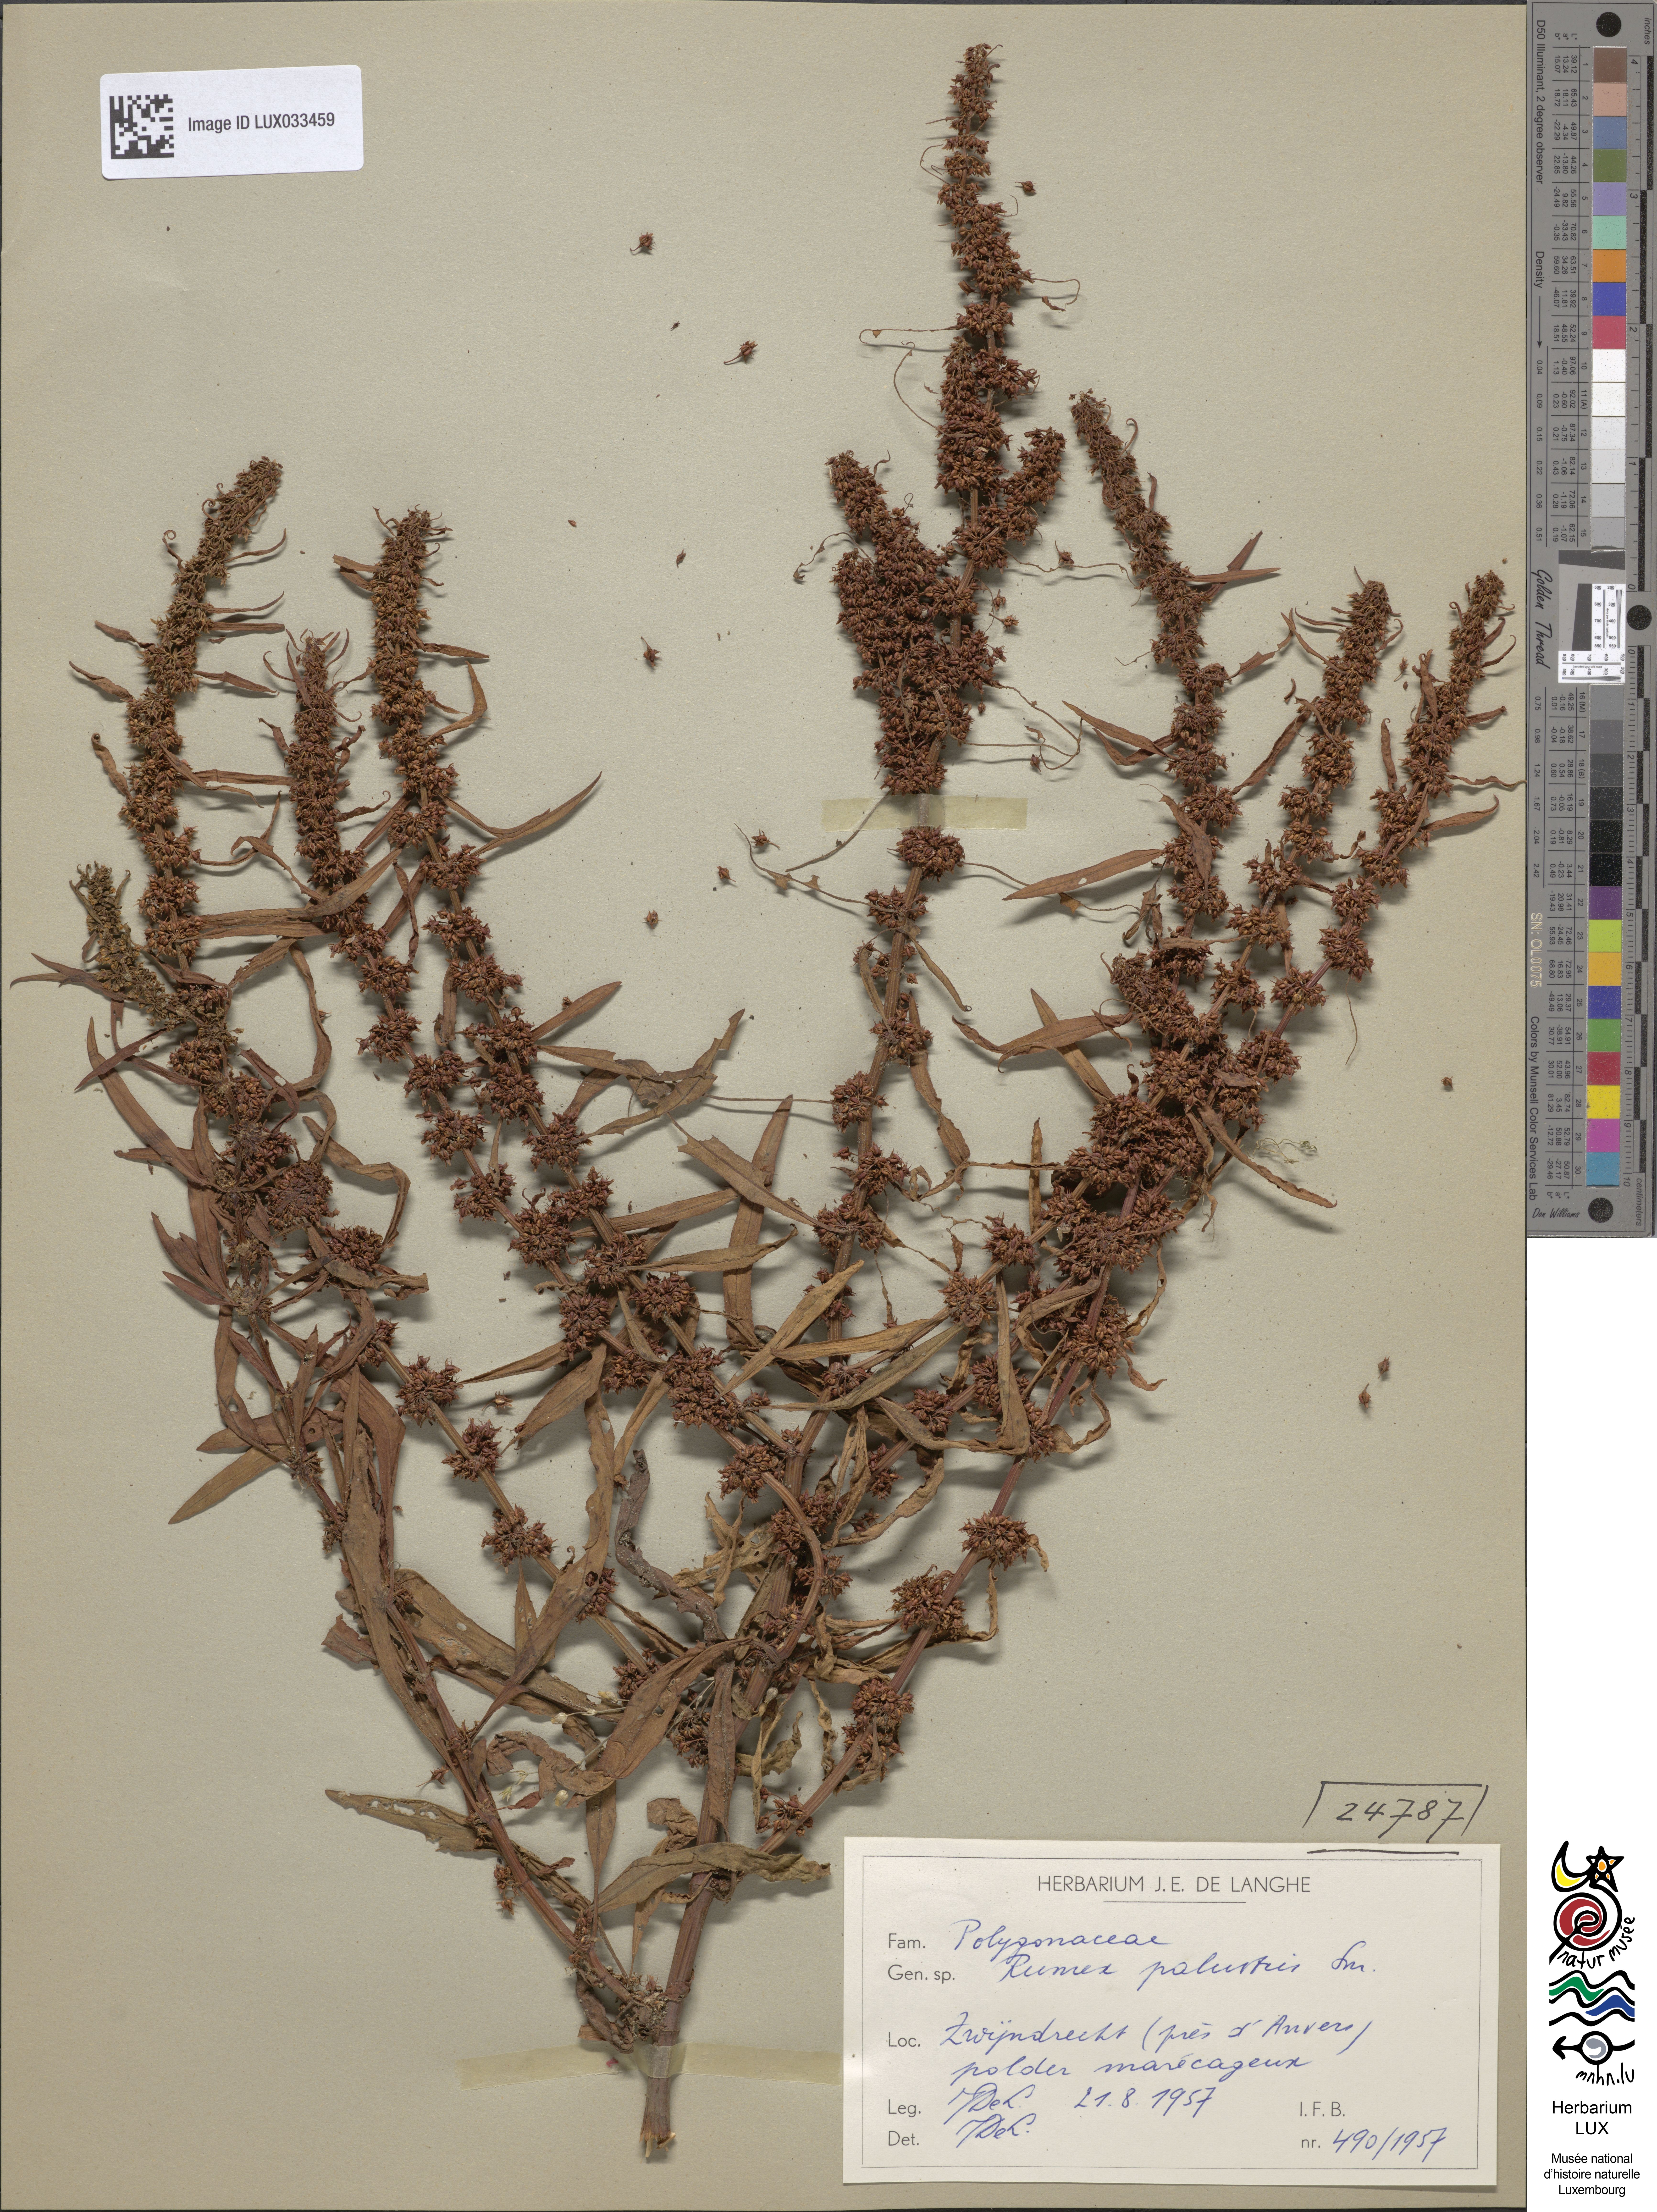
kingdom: Plantae
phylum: Tracheophyta
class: Magnoliopsida
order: Caryophyllales
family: Polygonaceae
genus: Rumex
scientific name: Rumex palustris
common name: Marsh dock
